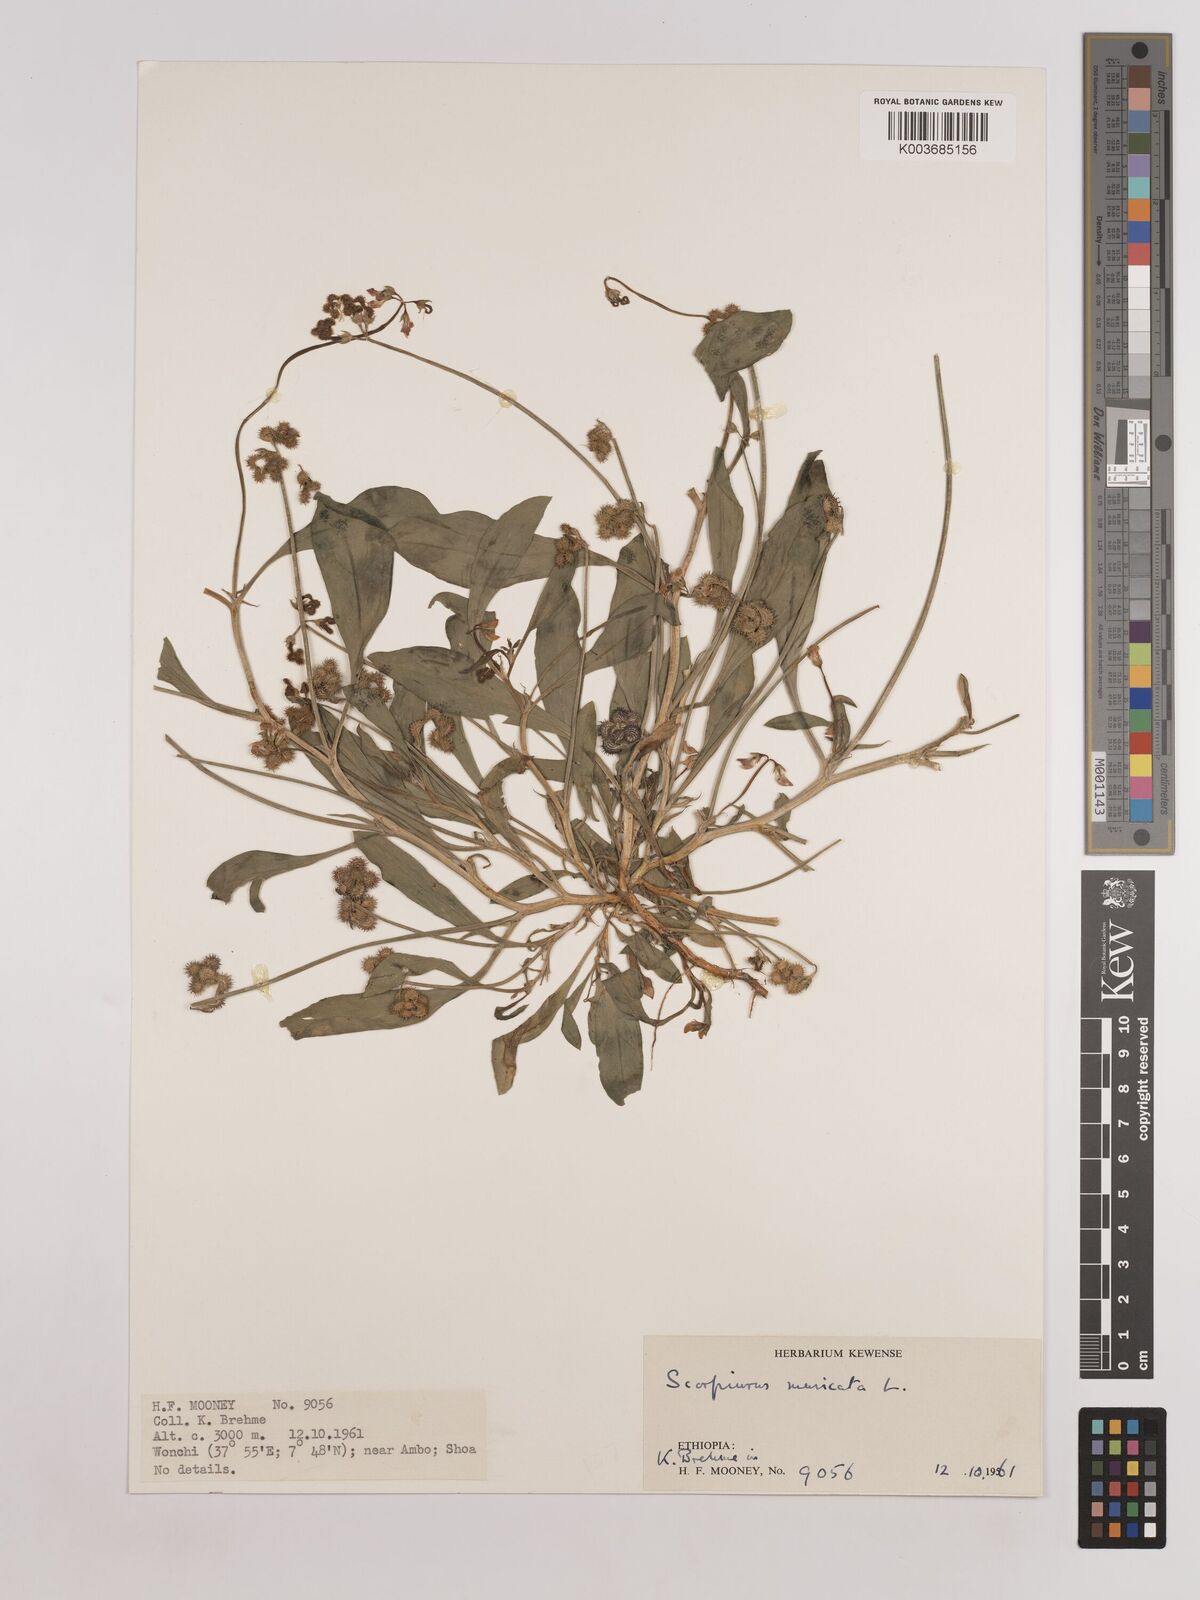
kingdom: Plantae
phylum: Tracheophyta
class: Magnoliopsida
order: Fabales
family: Fabaceae
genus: Scorpiurus
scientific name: Scorpiurus muricatus
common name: Caterpillar-plant
